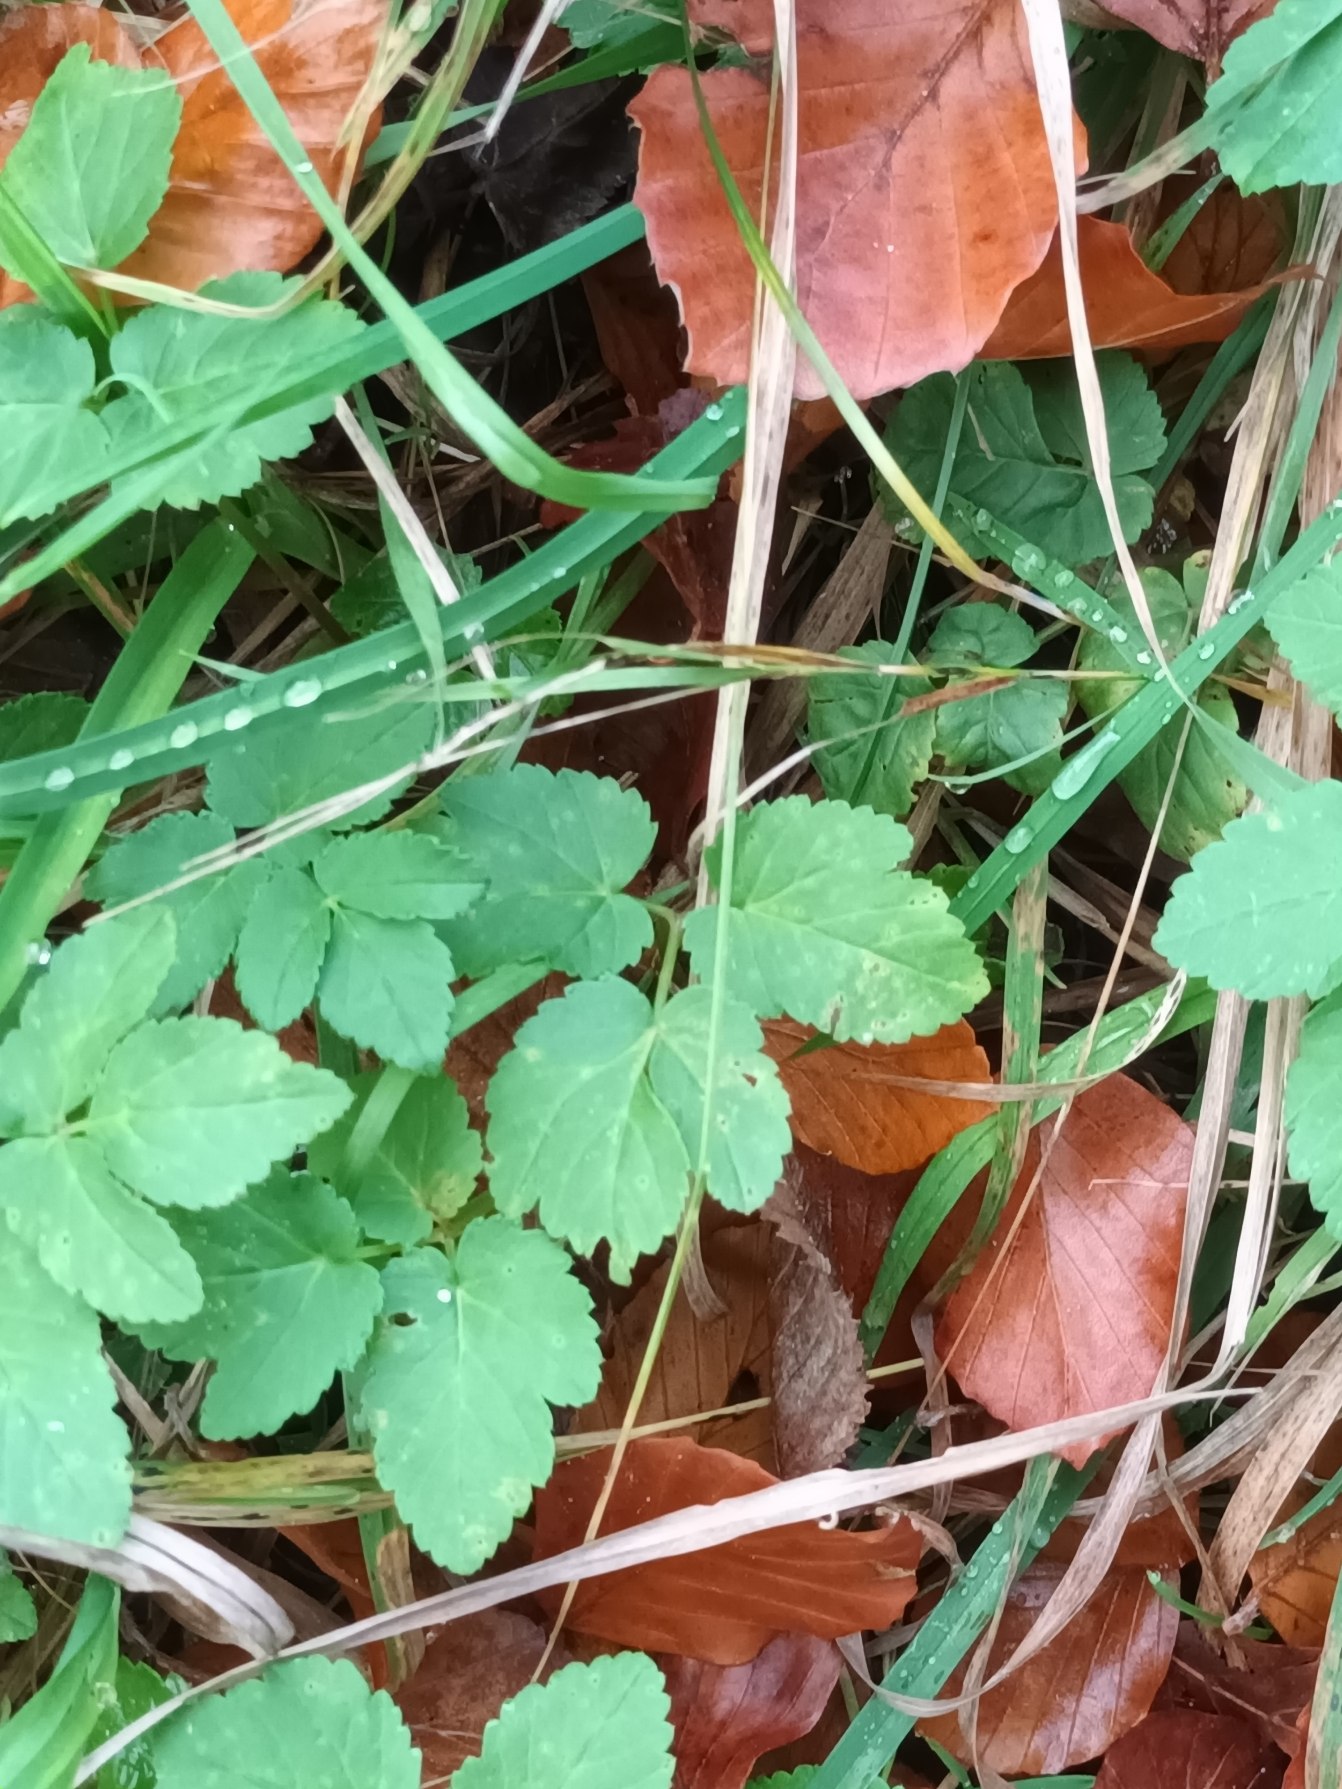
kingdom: Plantae
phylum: Tracheophyta
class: Magnoliopsida
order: Apiales
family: Apiaceae
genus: Aegopodium
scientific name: Aegopodium podagraria
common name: Skvalderkål
